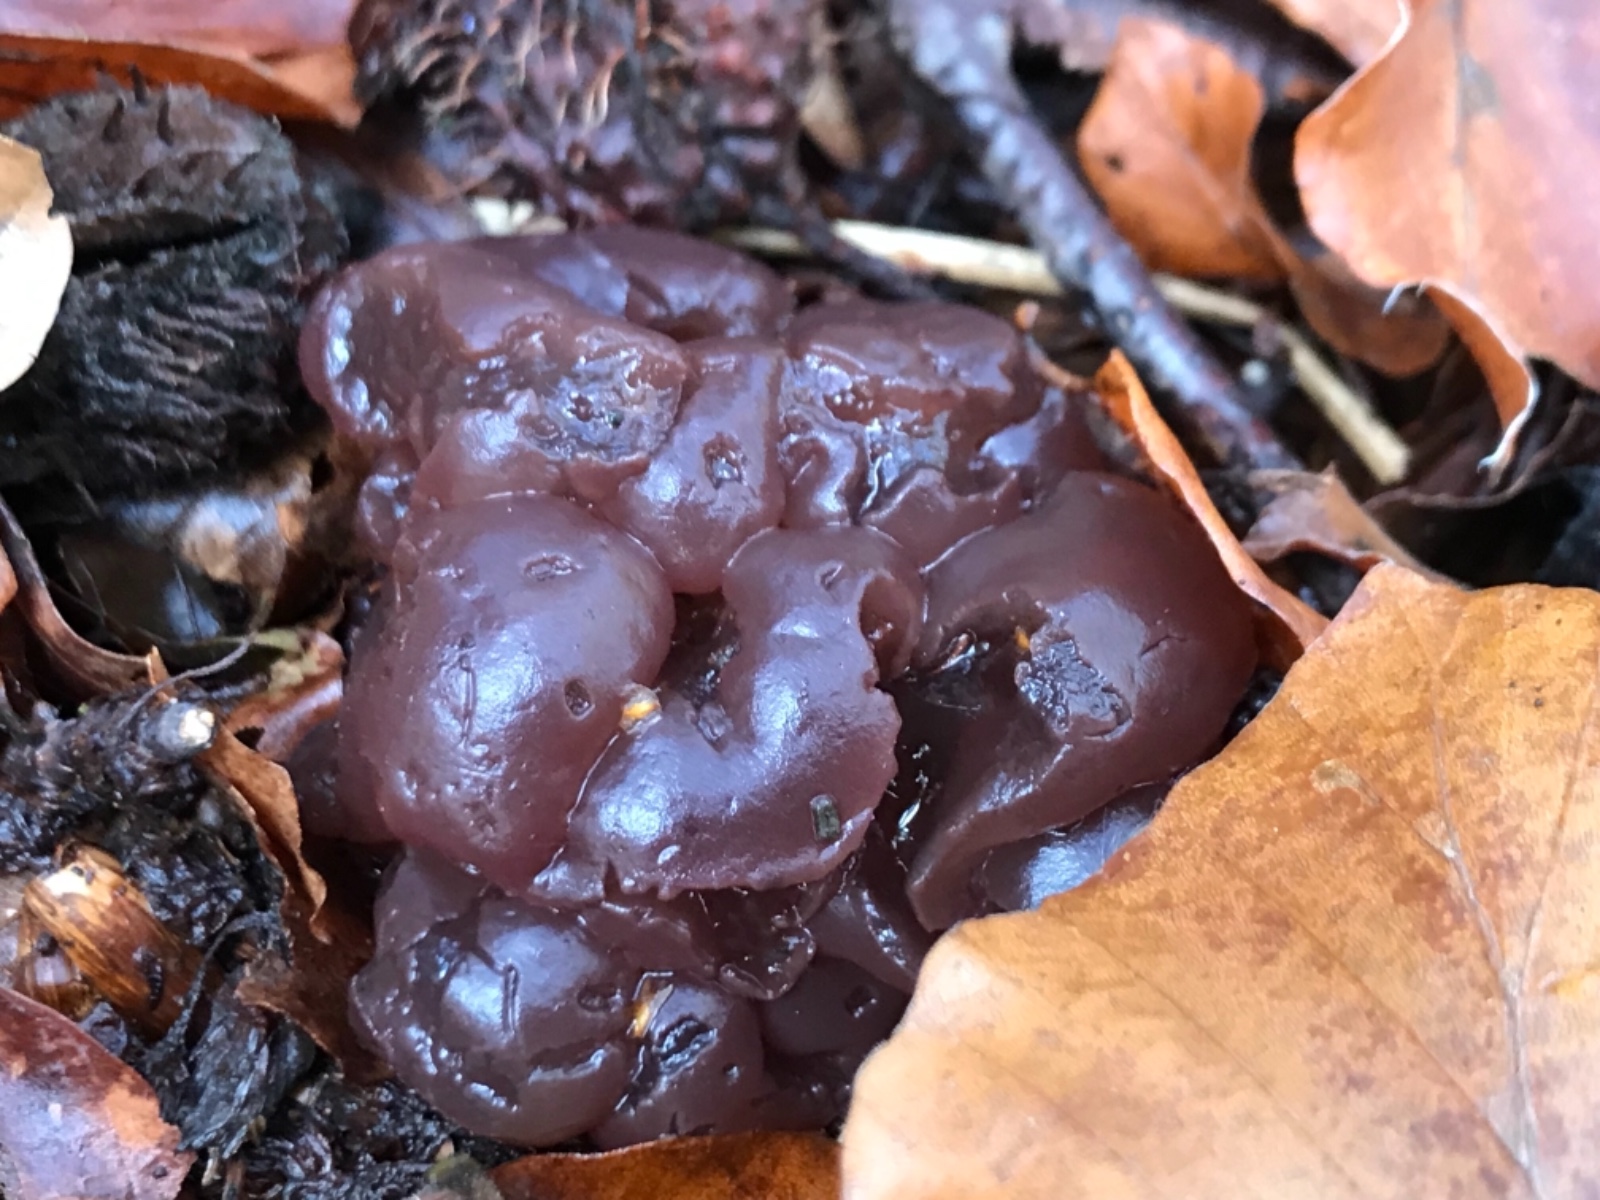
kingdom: Fungi
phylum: Ascomycota
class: Leotiomycetes
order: Helotiales
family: Gelatinodiscaceae
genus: Ascotremella
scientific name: Ascotremella faginea
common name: hjerne-bævreskive
